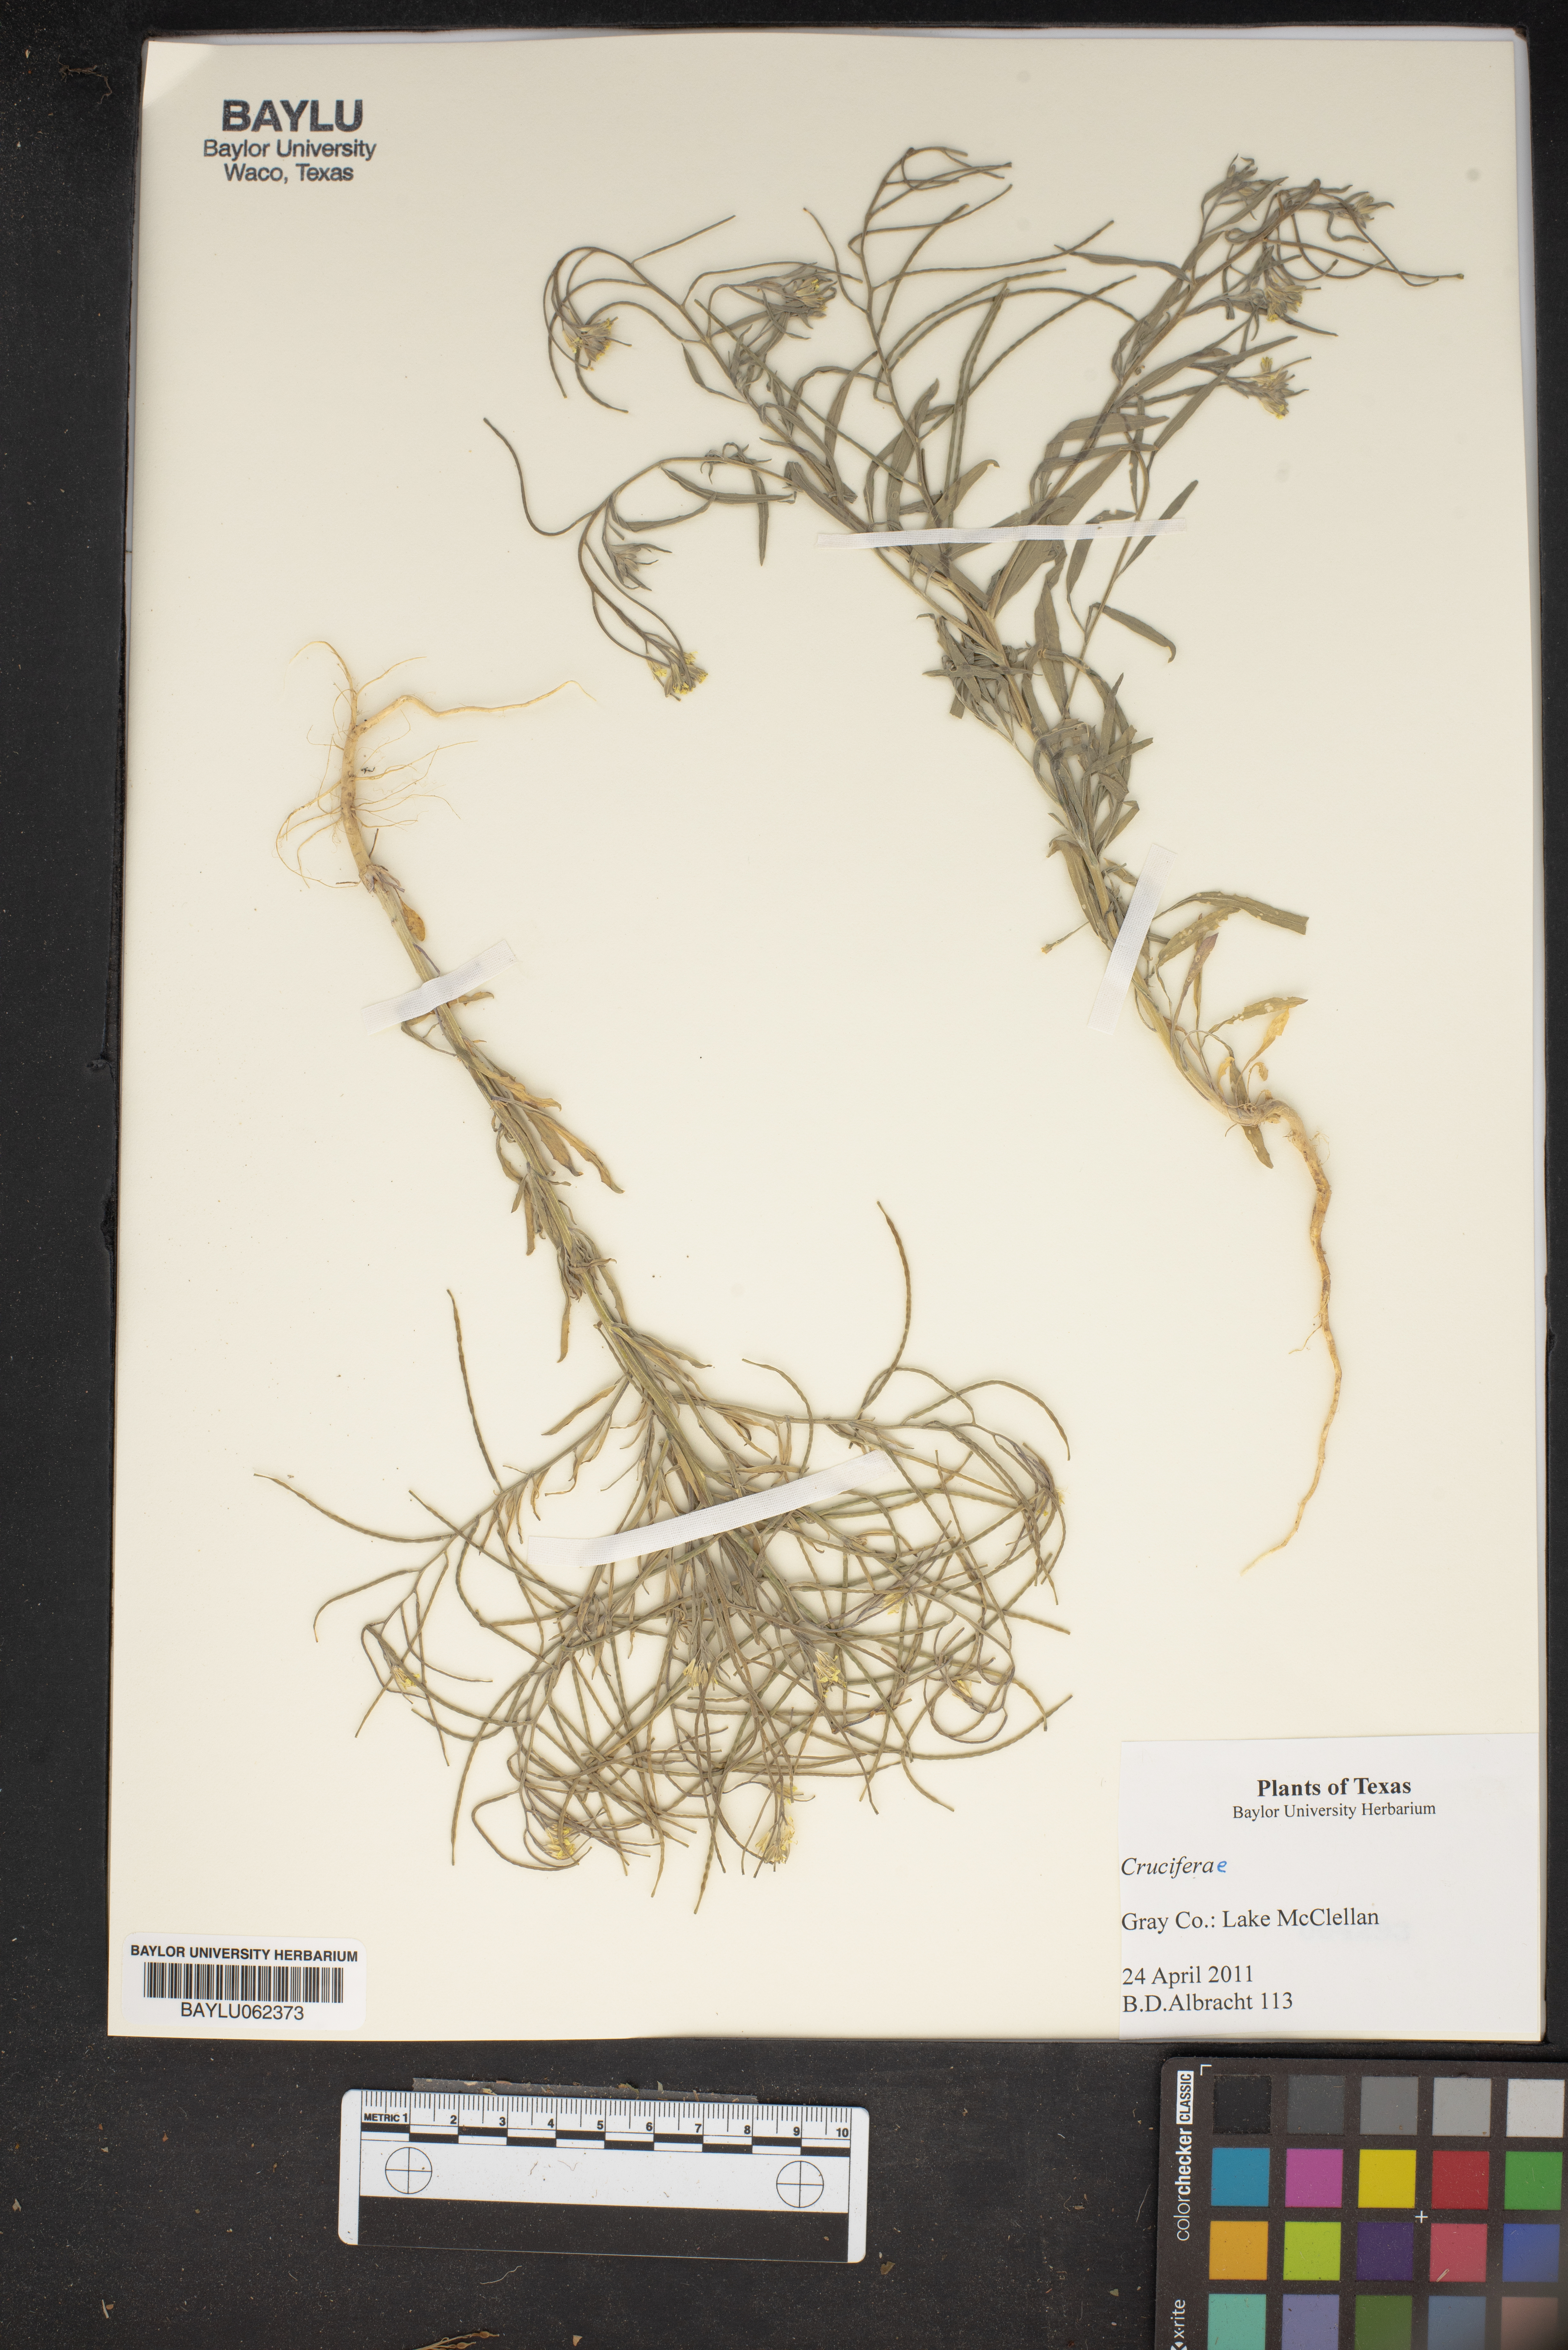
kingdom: Plantae
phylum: Tracheophyta
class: Magnoliopsida
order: Brassicales
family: Brassicaceae
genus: Brassica
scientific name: Brassica
